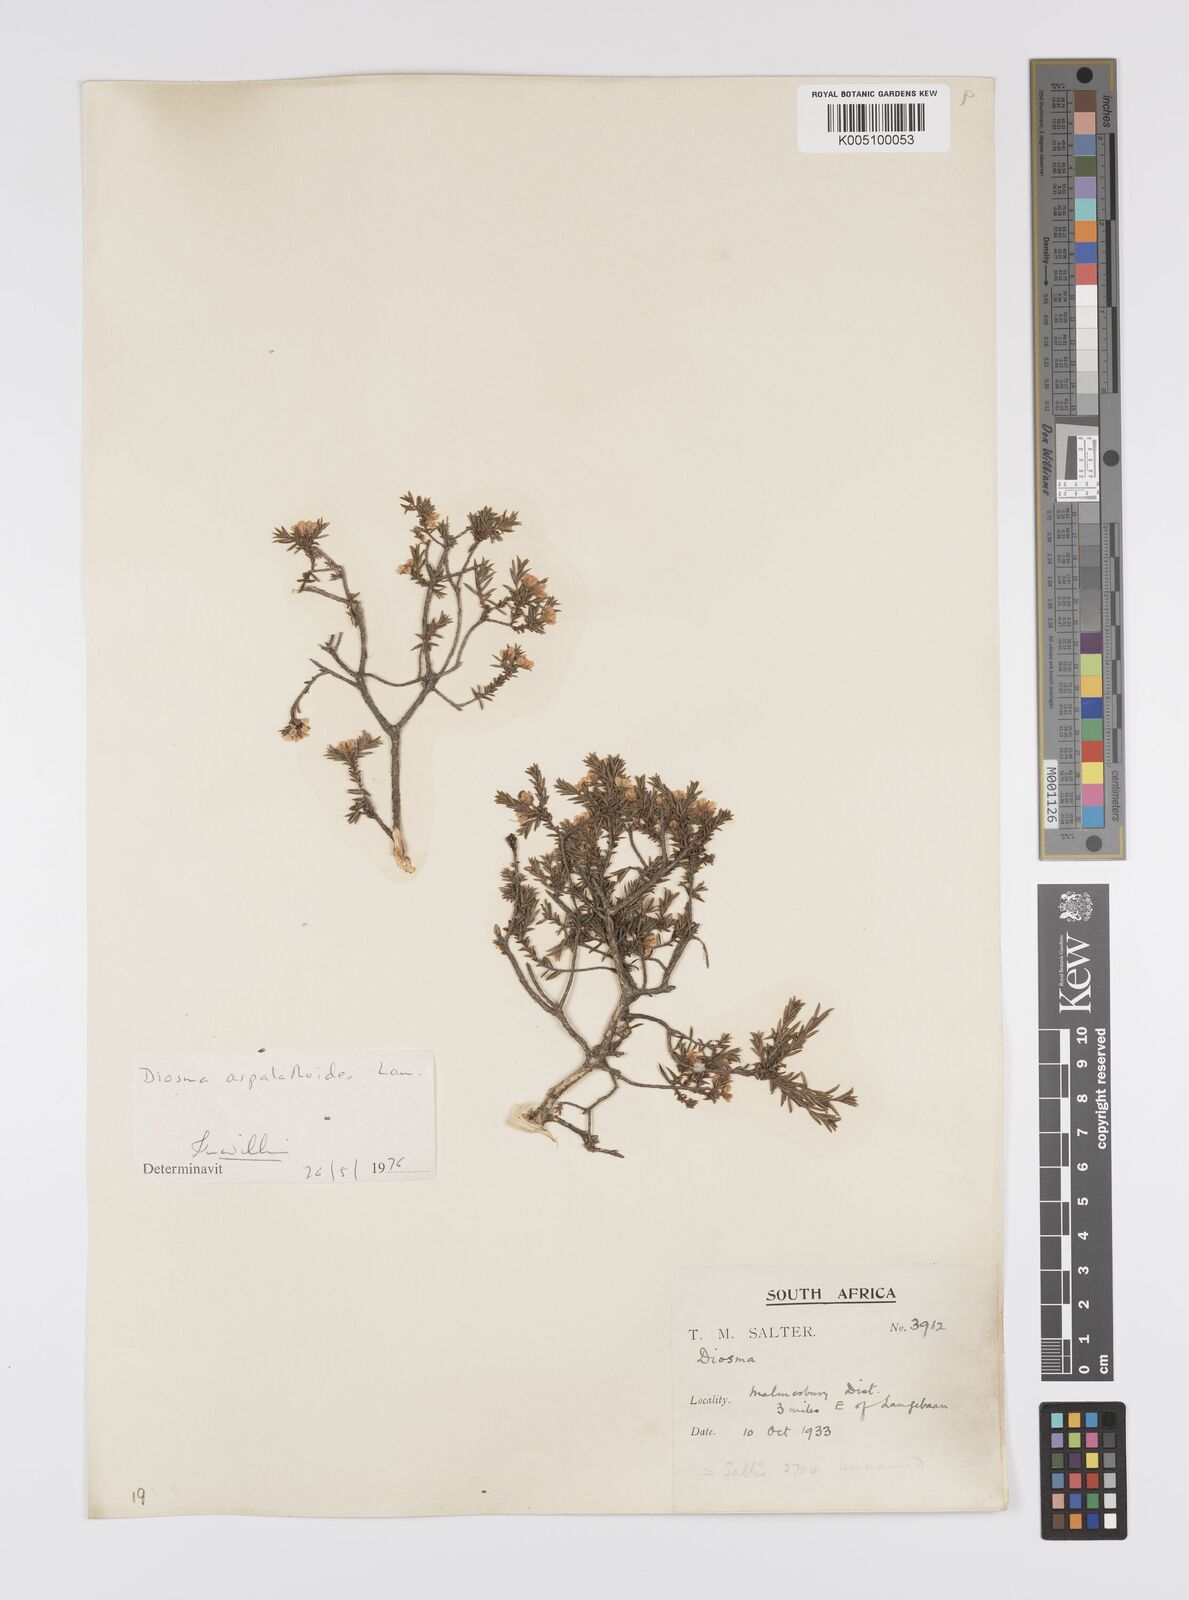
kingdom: Plantae
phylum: Tracheophyta
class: Magnoliopsida
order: Sapindales
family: Rutaceae
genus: Diosma
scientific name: Diosma aspalathoides
